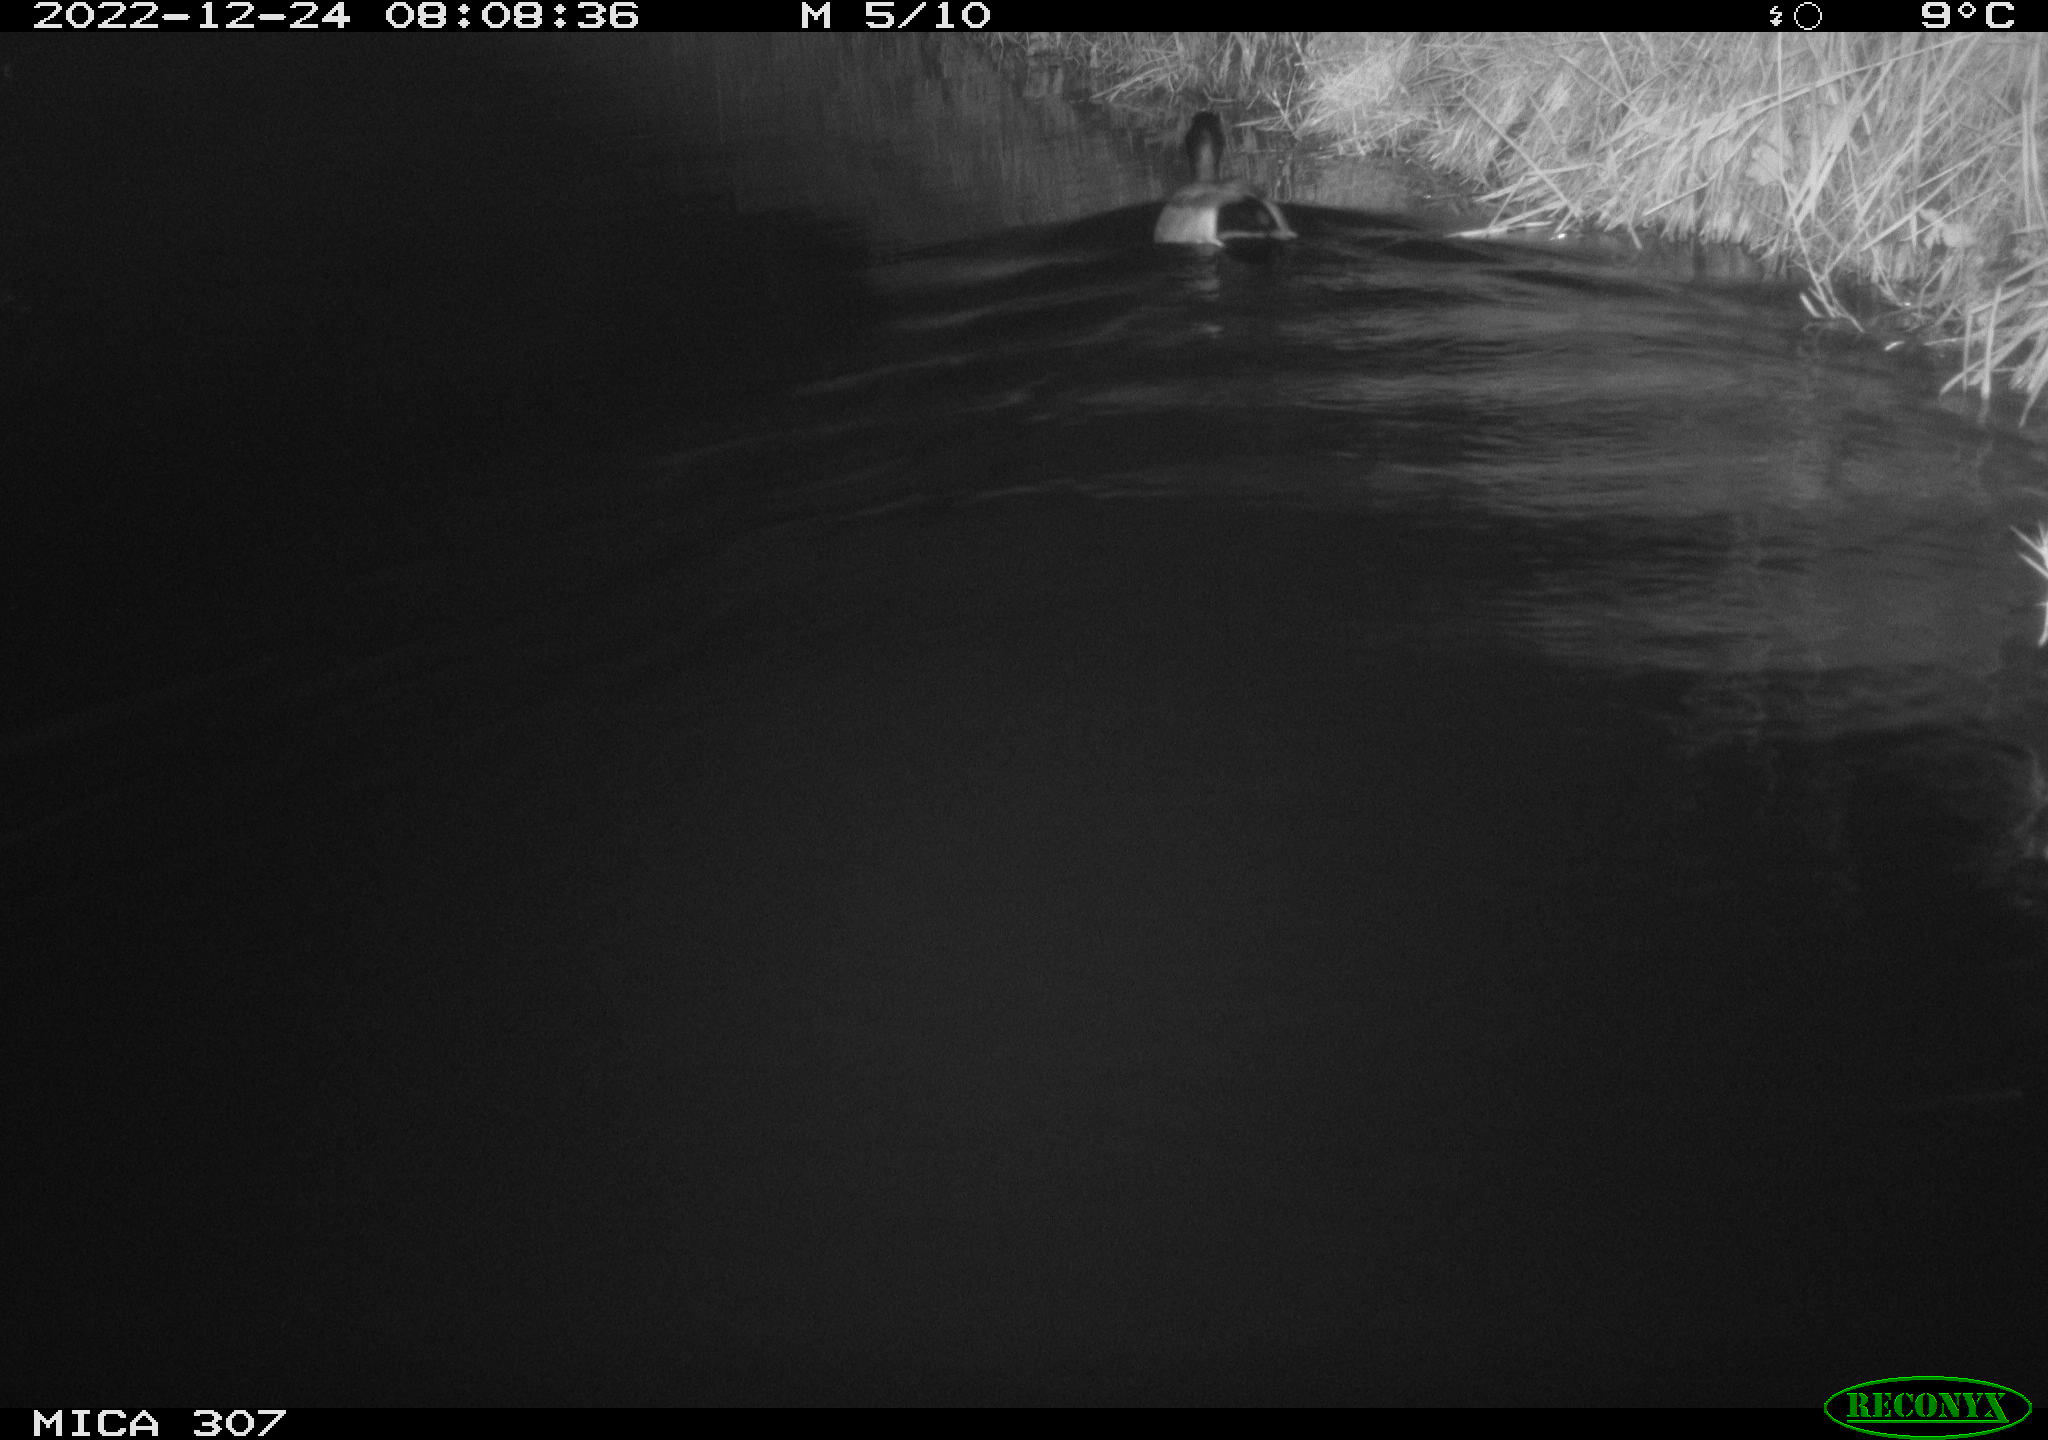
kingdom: Animalia
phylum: Chordata
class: Aves
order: Anseriformes
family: Anatidae
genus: Anas
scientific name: Anas platyrhynchos
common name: Mallard
